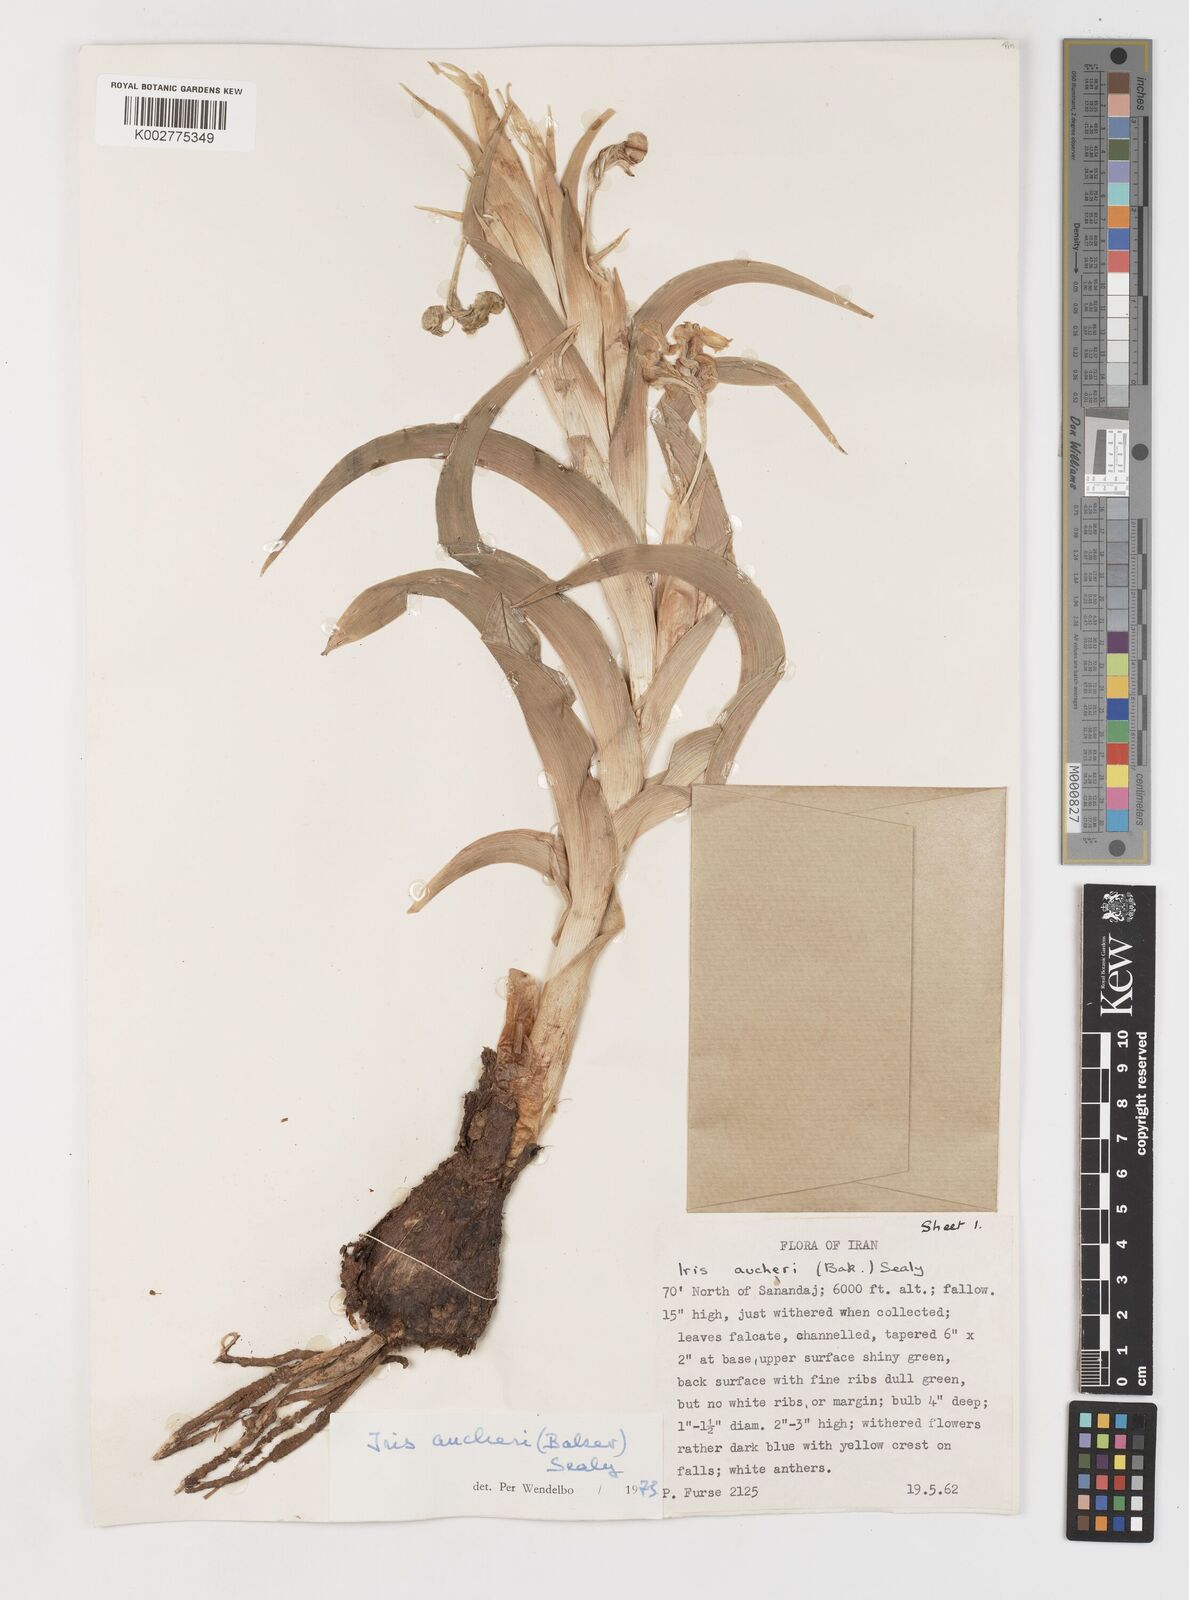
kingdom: Plantae
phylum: Tracheophyta
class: Liliopsida
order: Asparagales
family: Iridaceae
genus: Iris
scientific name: Iris aucheri
